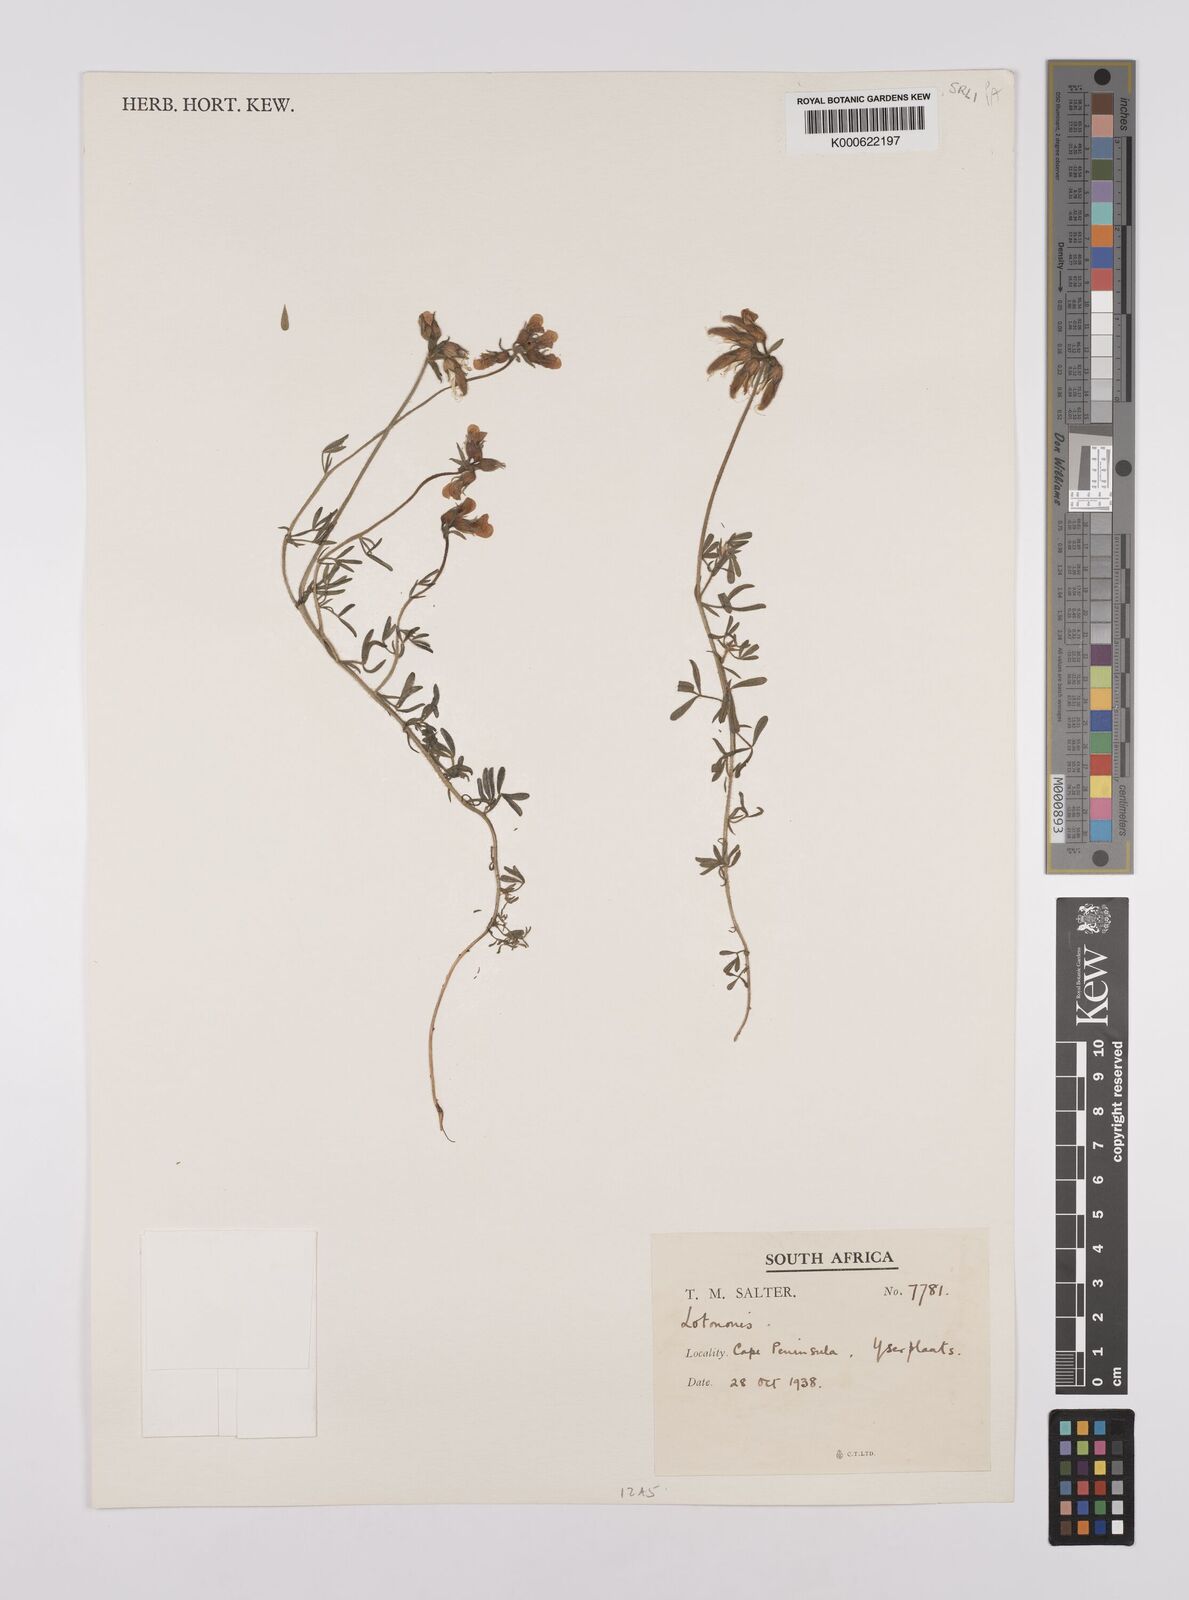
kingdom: Plantae
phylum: Tracheophyta
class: Magnoliopsida
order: Fabales
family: Fabaceae
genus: Lotononis
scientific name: Lotononis involucrata
